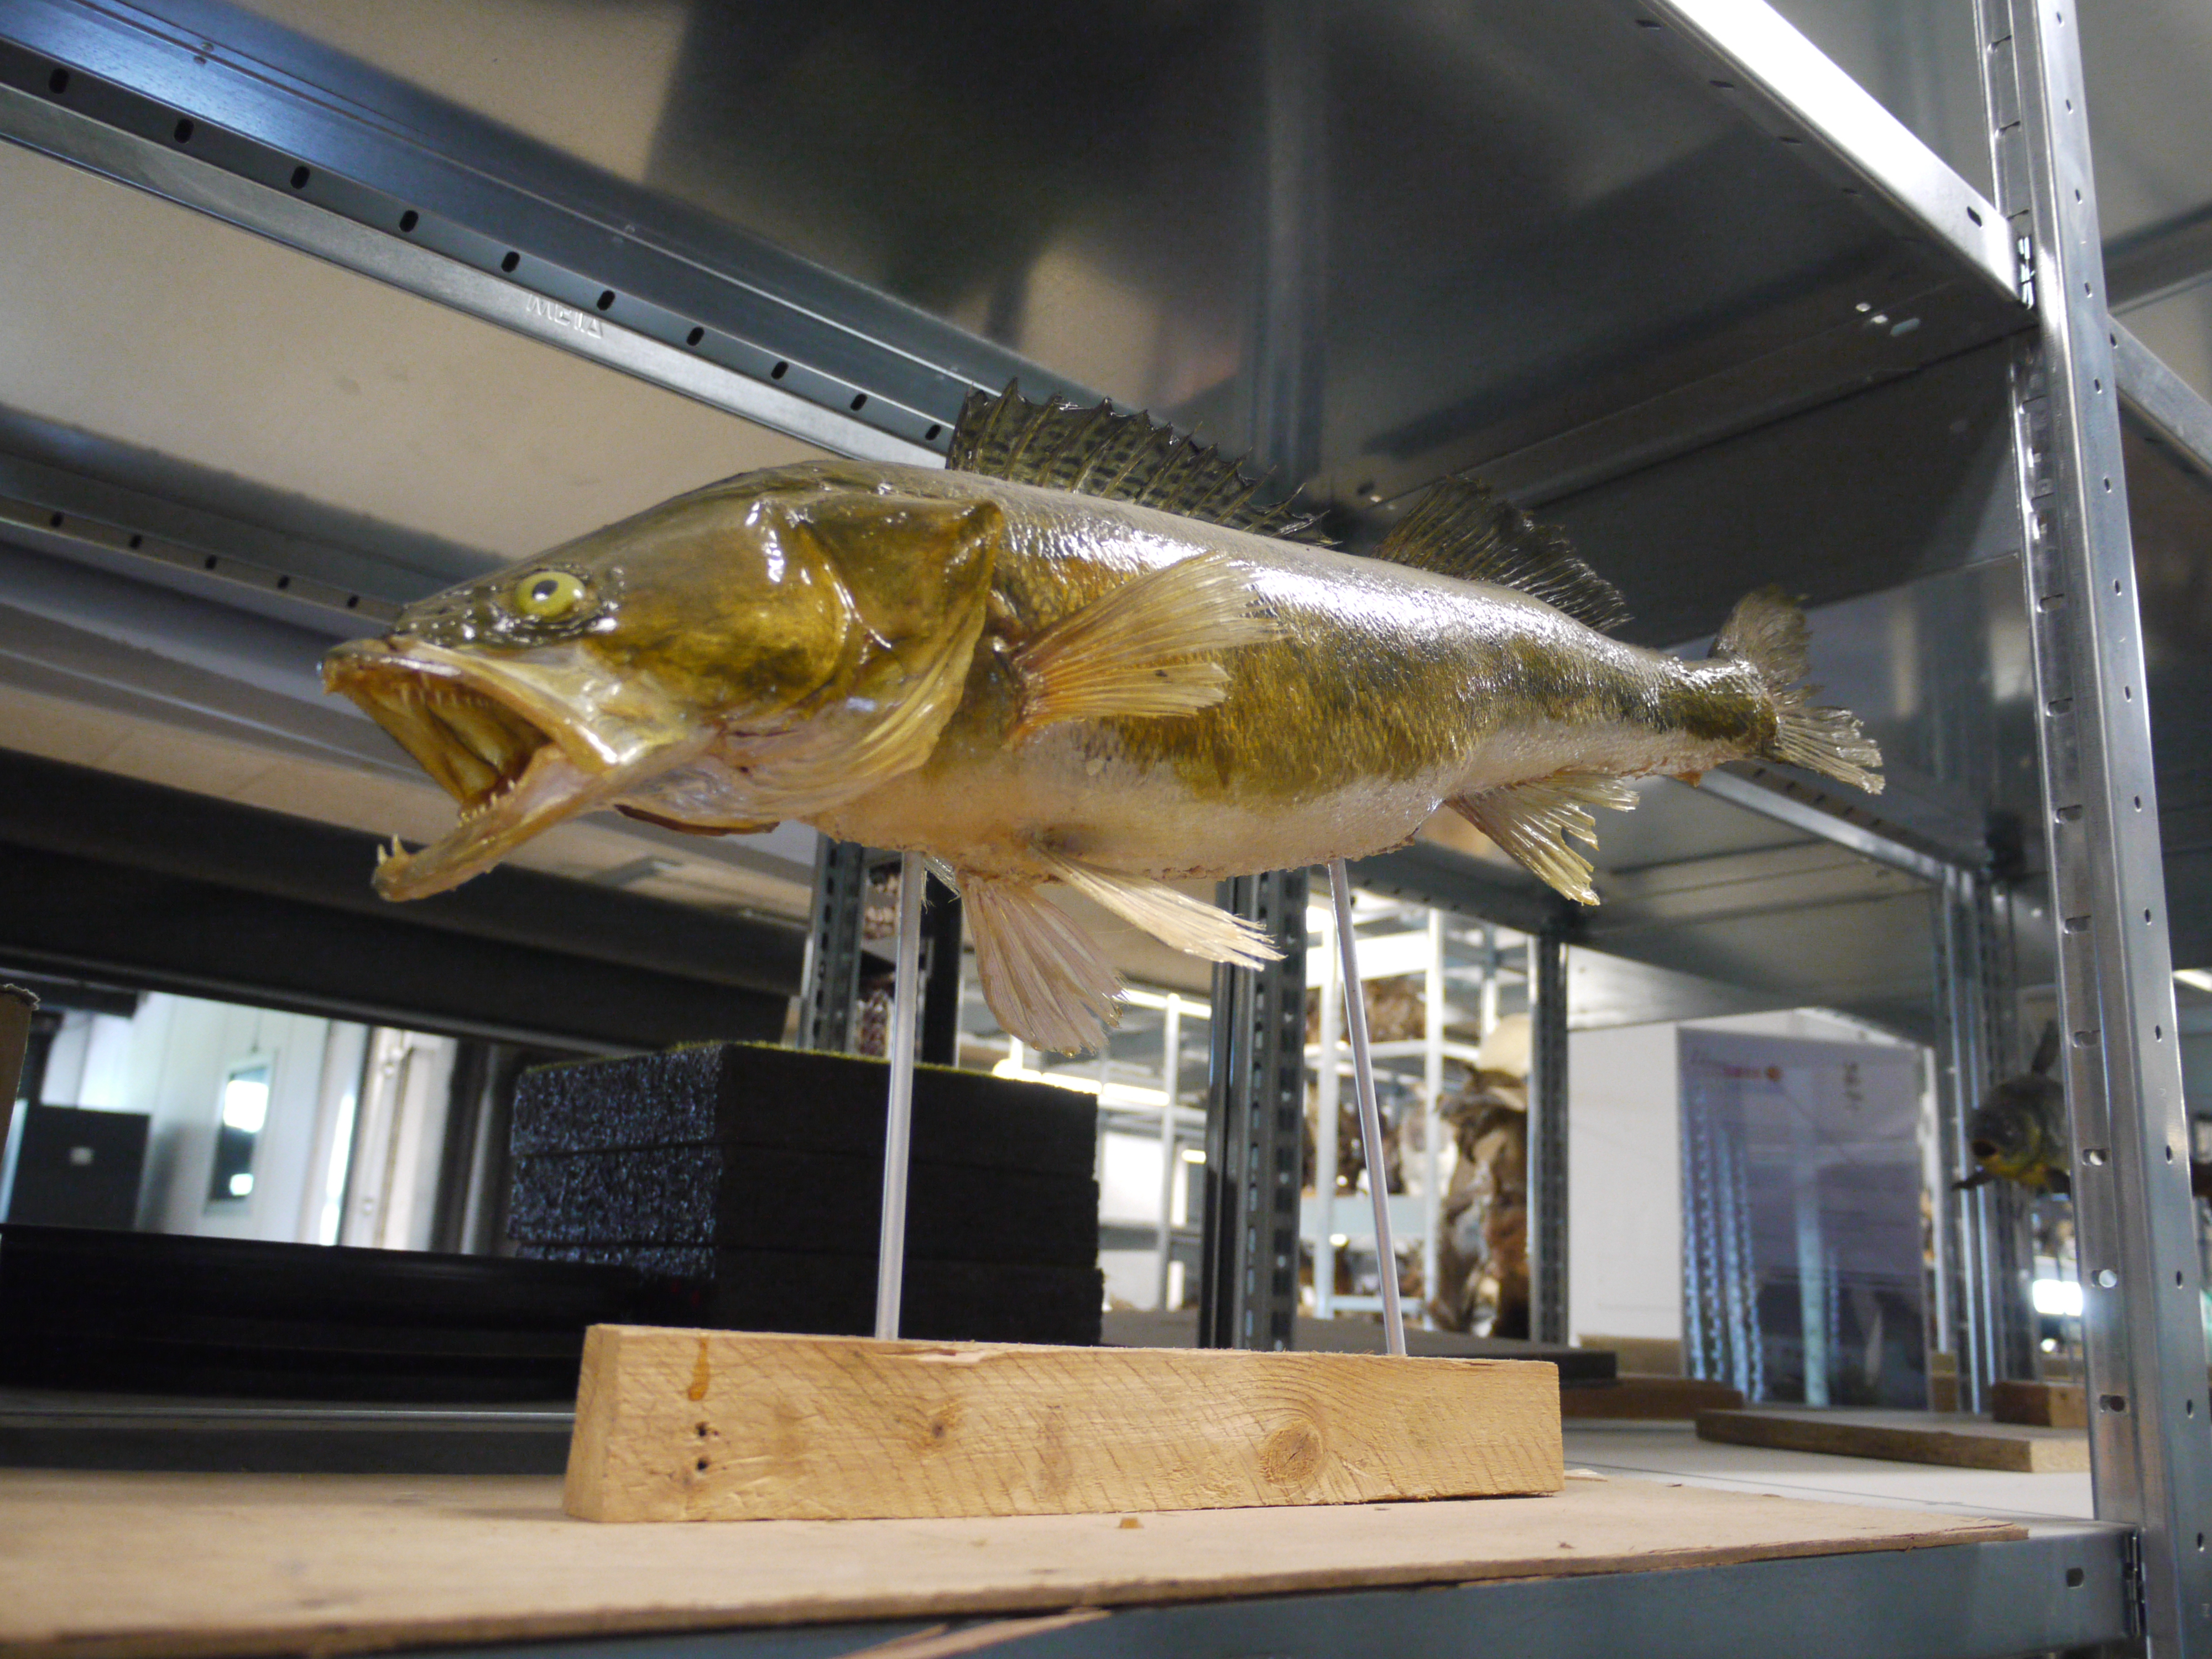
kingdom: Animalia
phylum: Chordata
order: Perciformes
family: Percidae
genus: Sander
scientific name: Sander lucioperca
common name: Pikeperch
